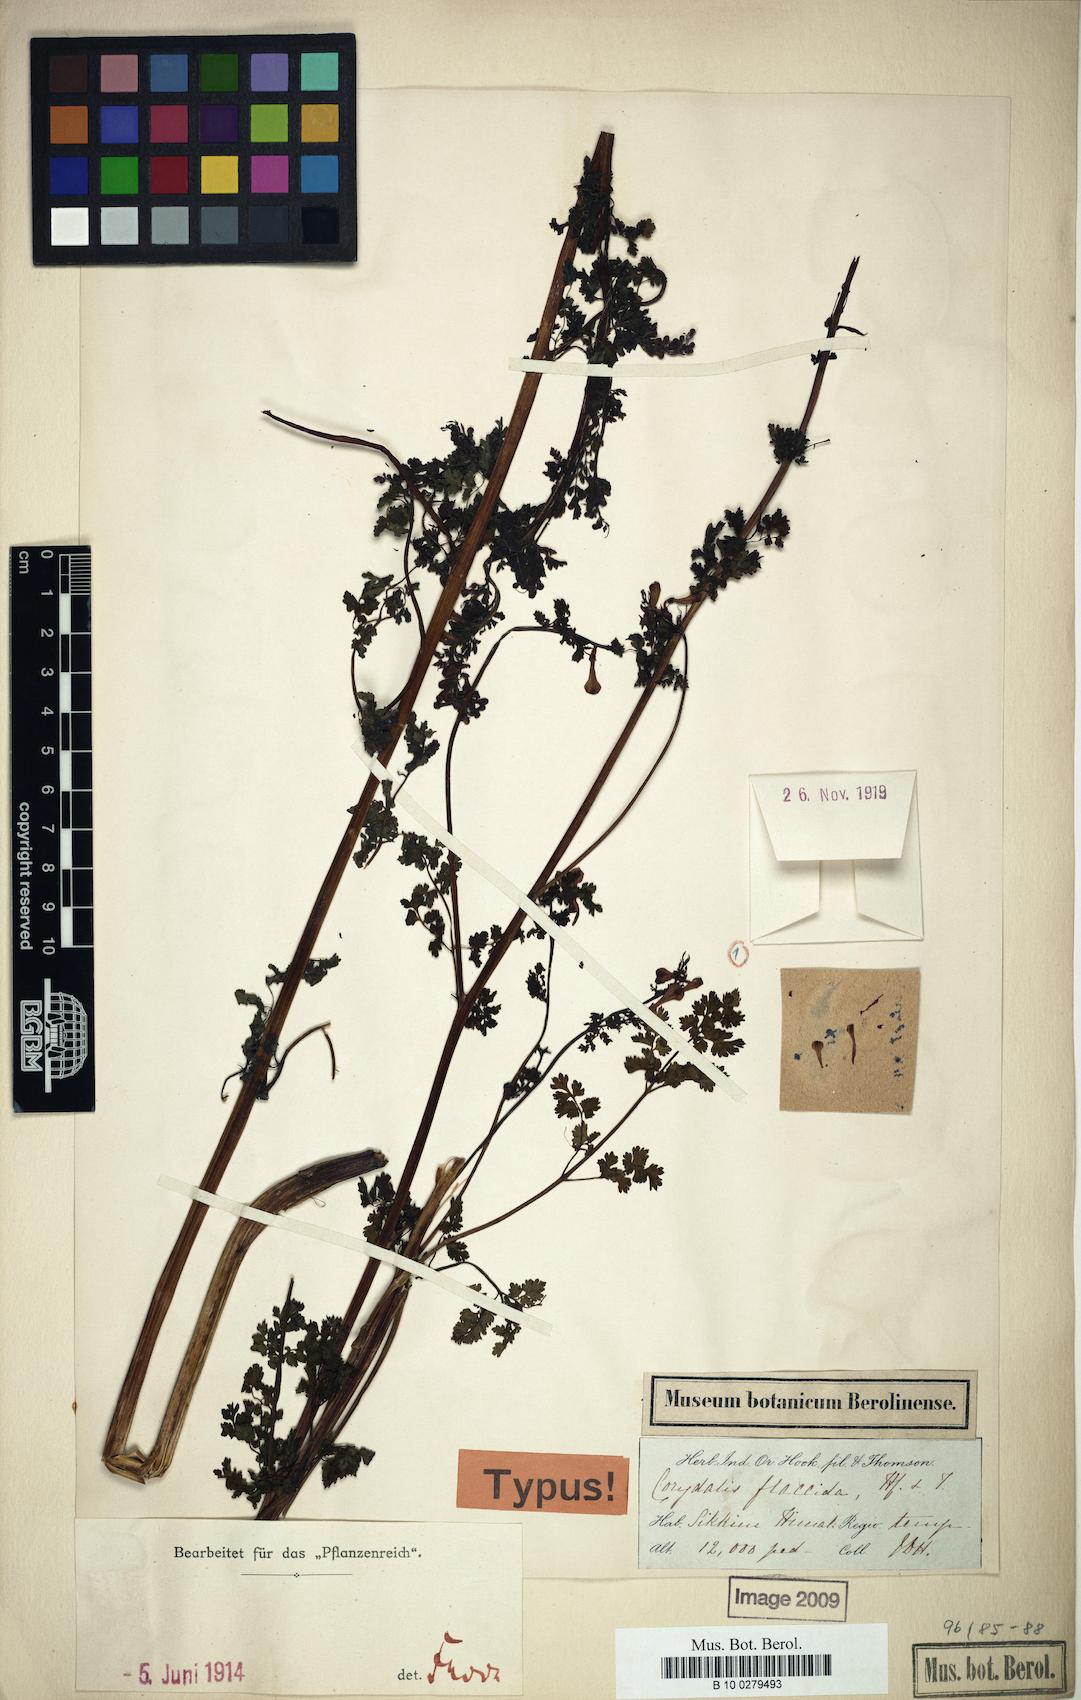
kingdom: Plantae
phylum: Tracheophyta
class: Magnoliopsida
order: Ranunculales
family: Papaveraceae
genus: Corydalis
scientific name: Corydalis flaccida
